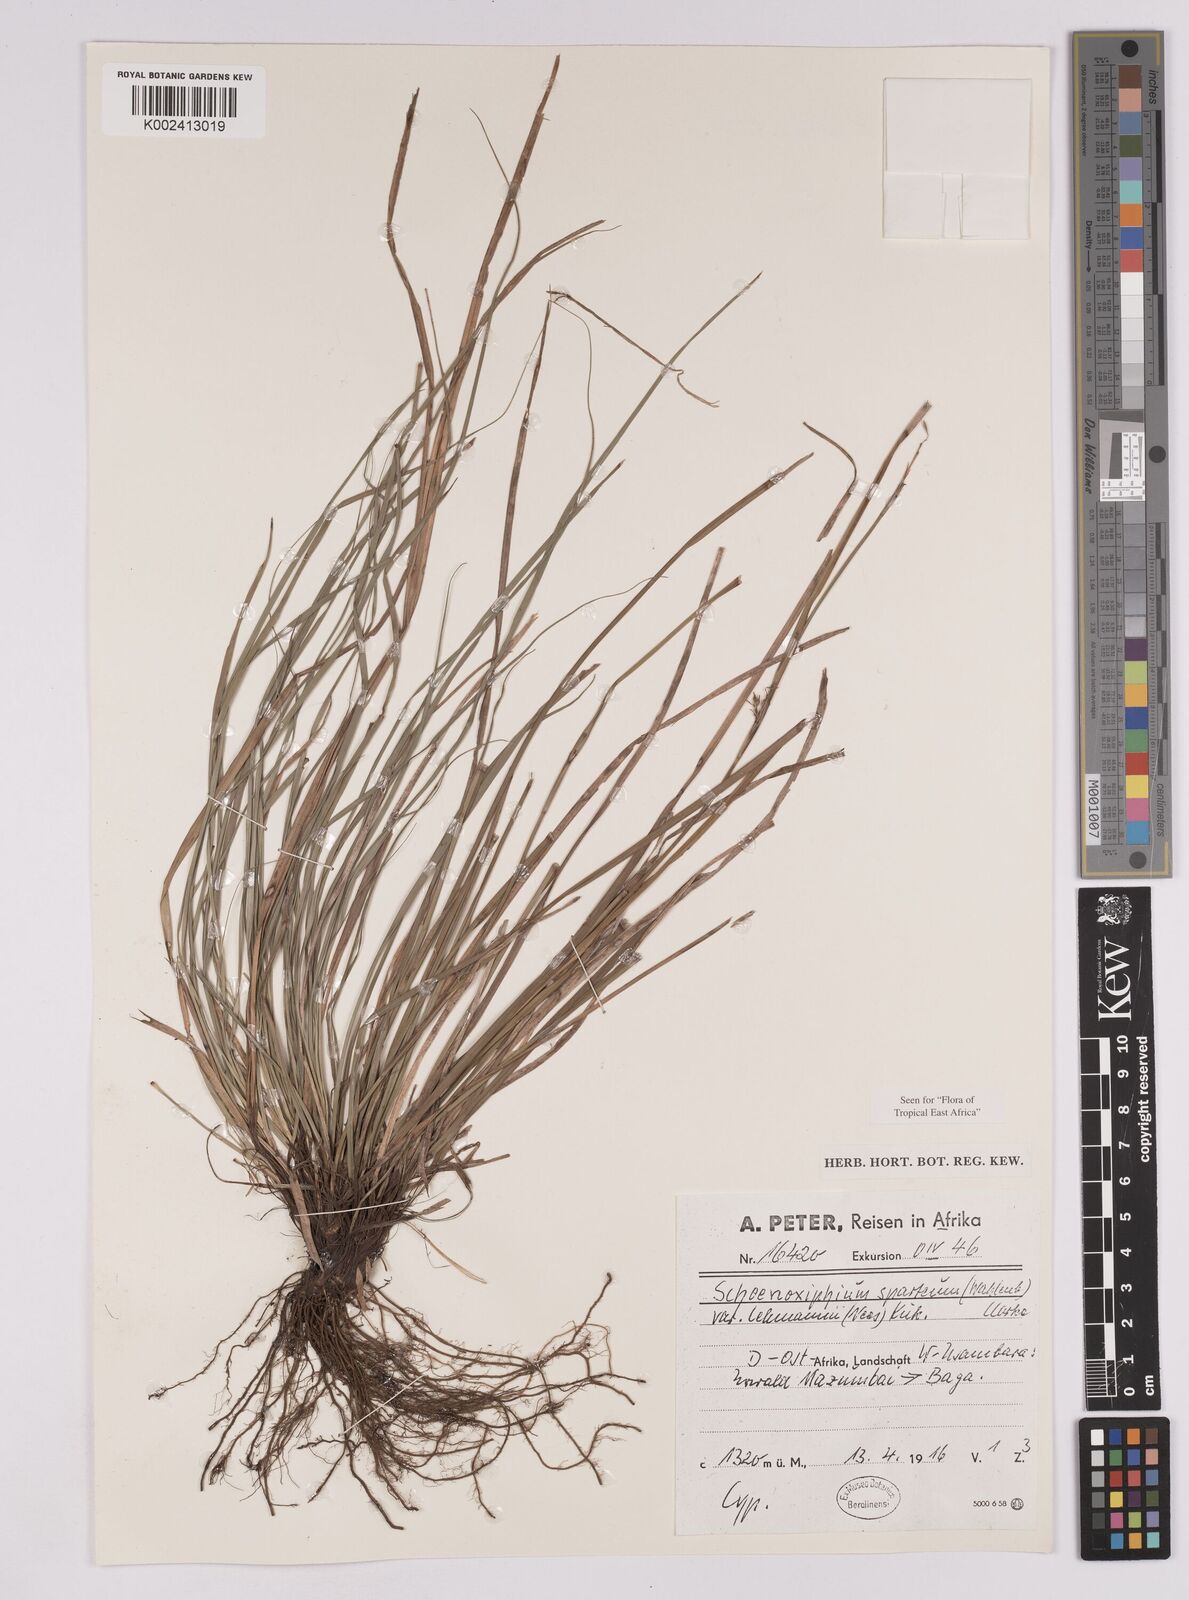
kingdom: Plantae
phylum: Tracheophyta
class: Liliopsida
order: Poales
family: Cyperaceae
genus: Carex
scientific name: Carex uhligii
